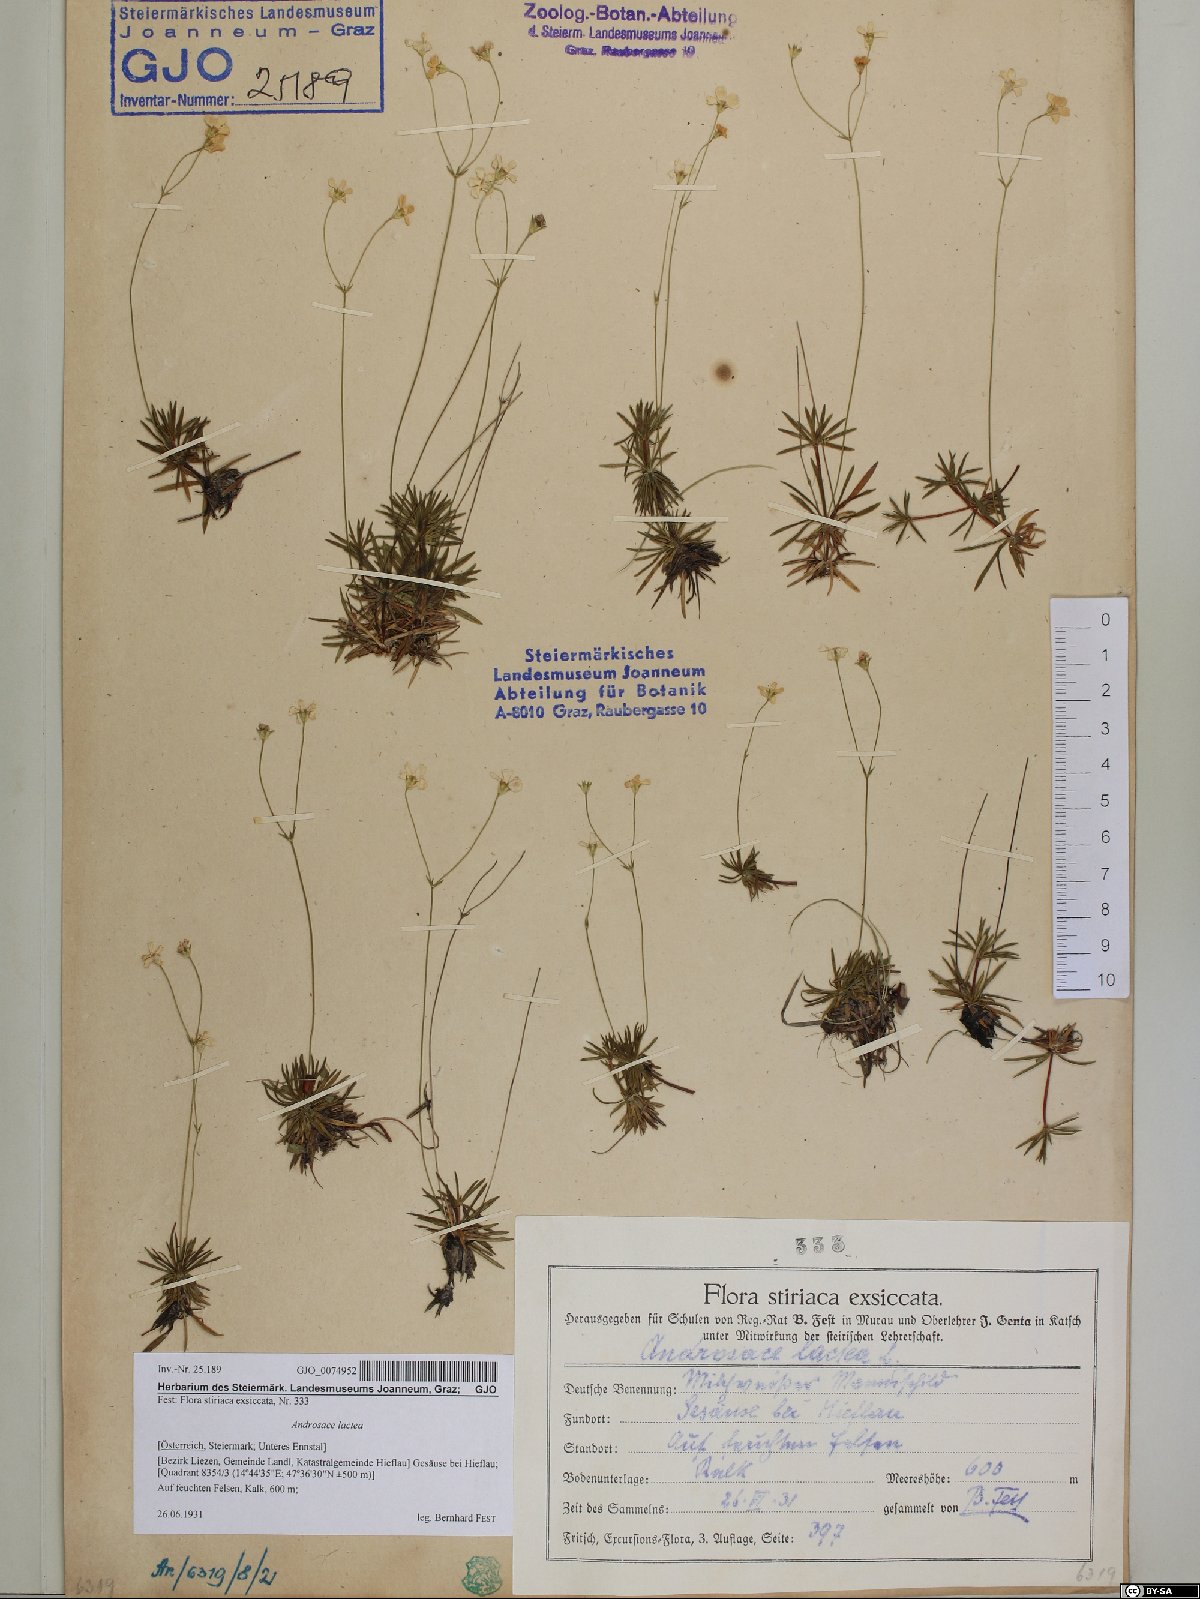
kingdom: Plantae
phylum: Tracheophyta
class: Magnoliopsida
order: Ericales
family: Primulaceae
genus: Androsace
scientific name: Androsace lactea
